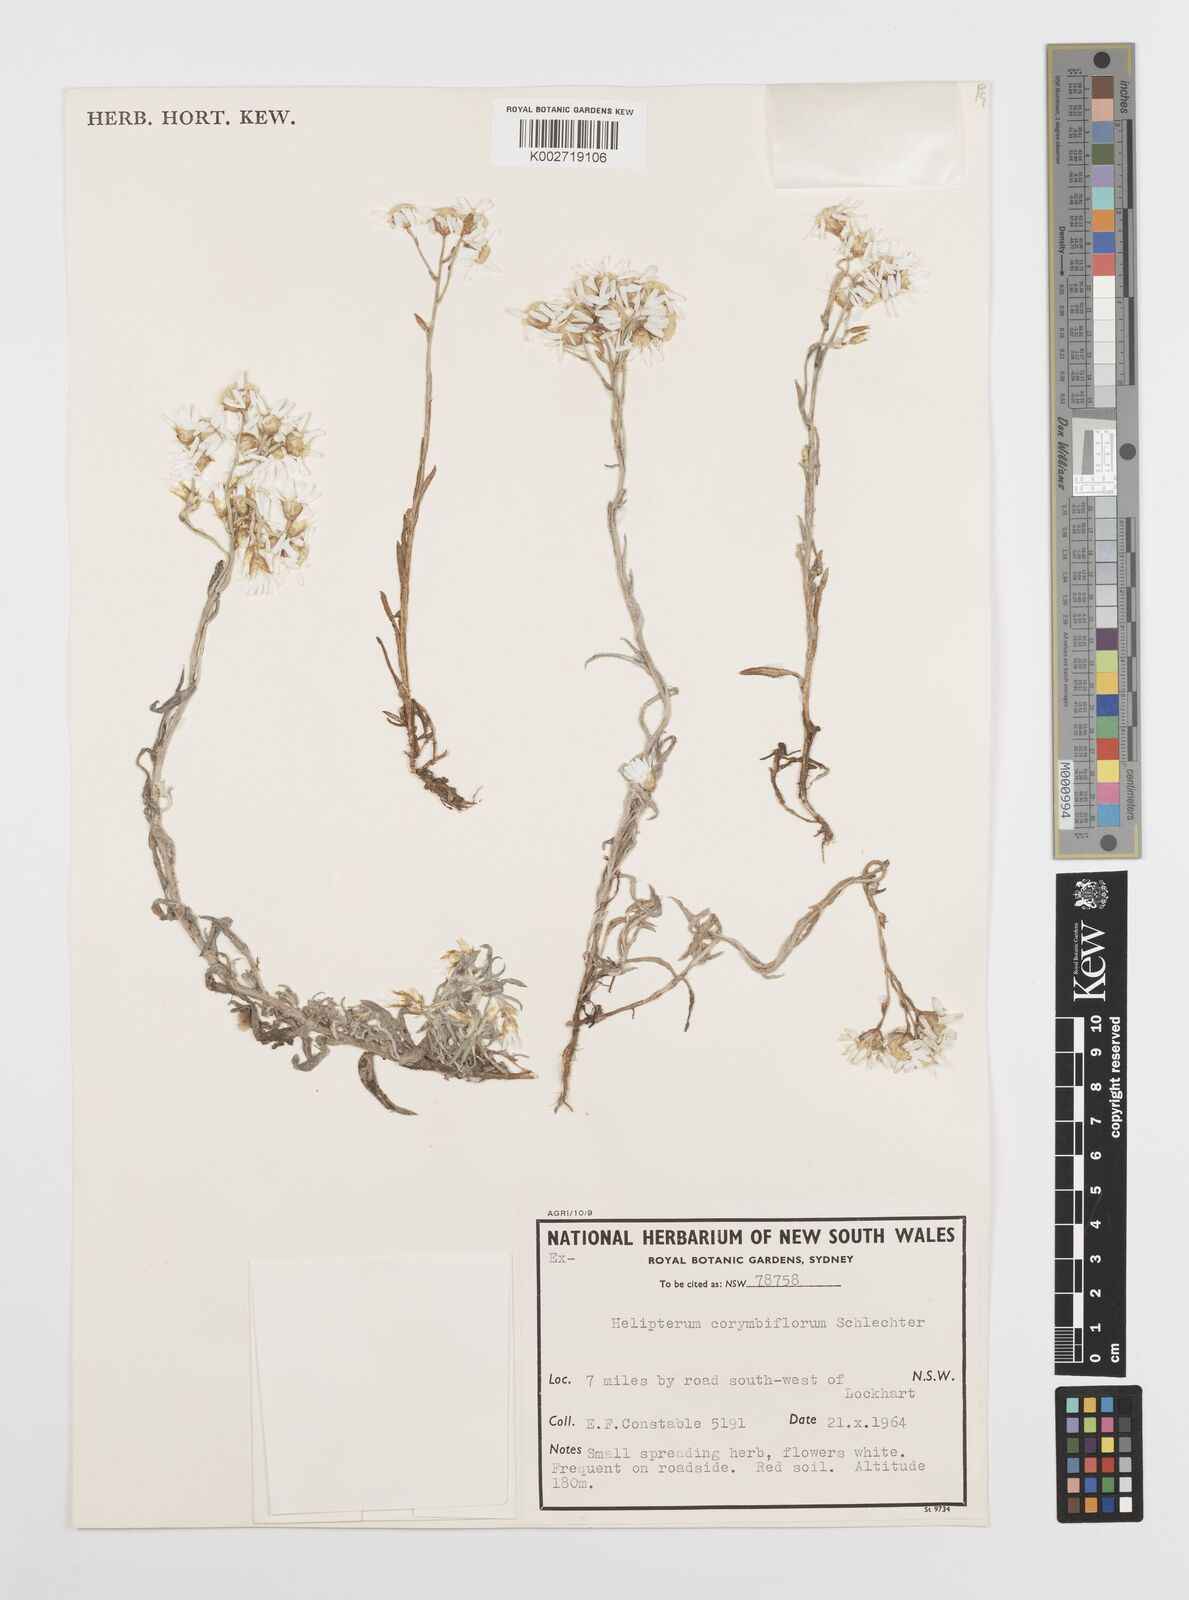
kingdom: Plantae
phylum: Tracheophyta
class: Magnoliopsida
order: Asterales
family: Asteraceae
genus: Rhodanthe
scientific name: Rhodanthe corymbiflora
